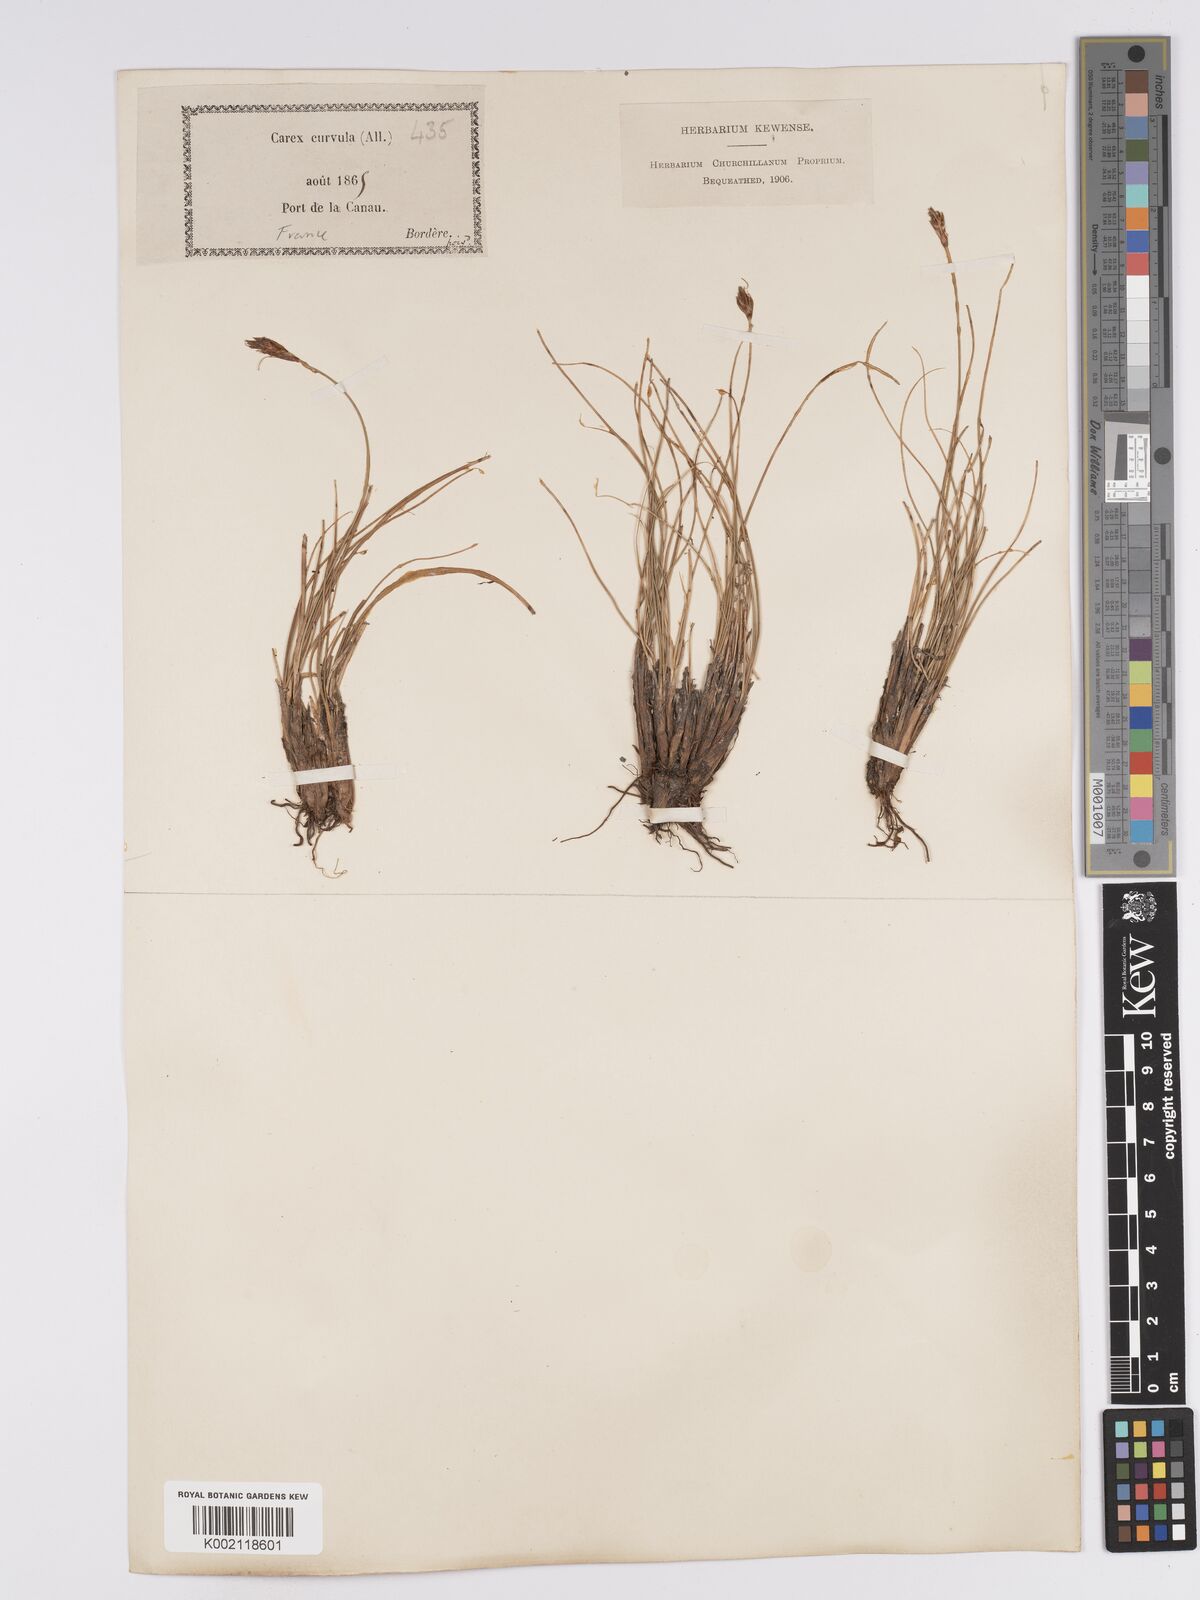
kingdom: Plantae
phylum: Tracheophyta
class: Liliopsida
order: Poales
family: Cyperaceae
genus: Carex
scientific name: Carex curvula
